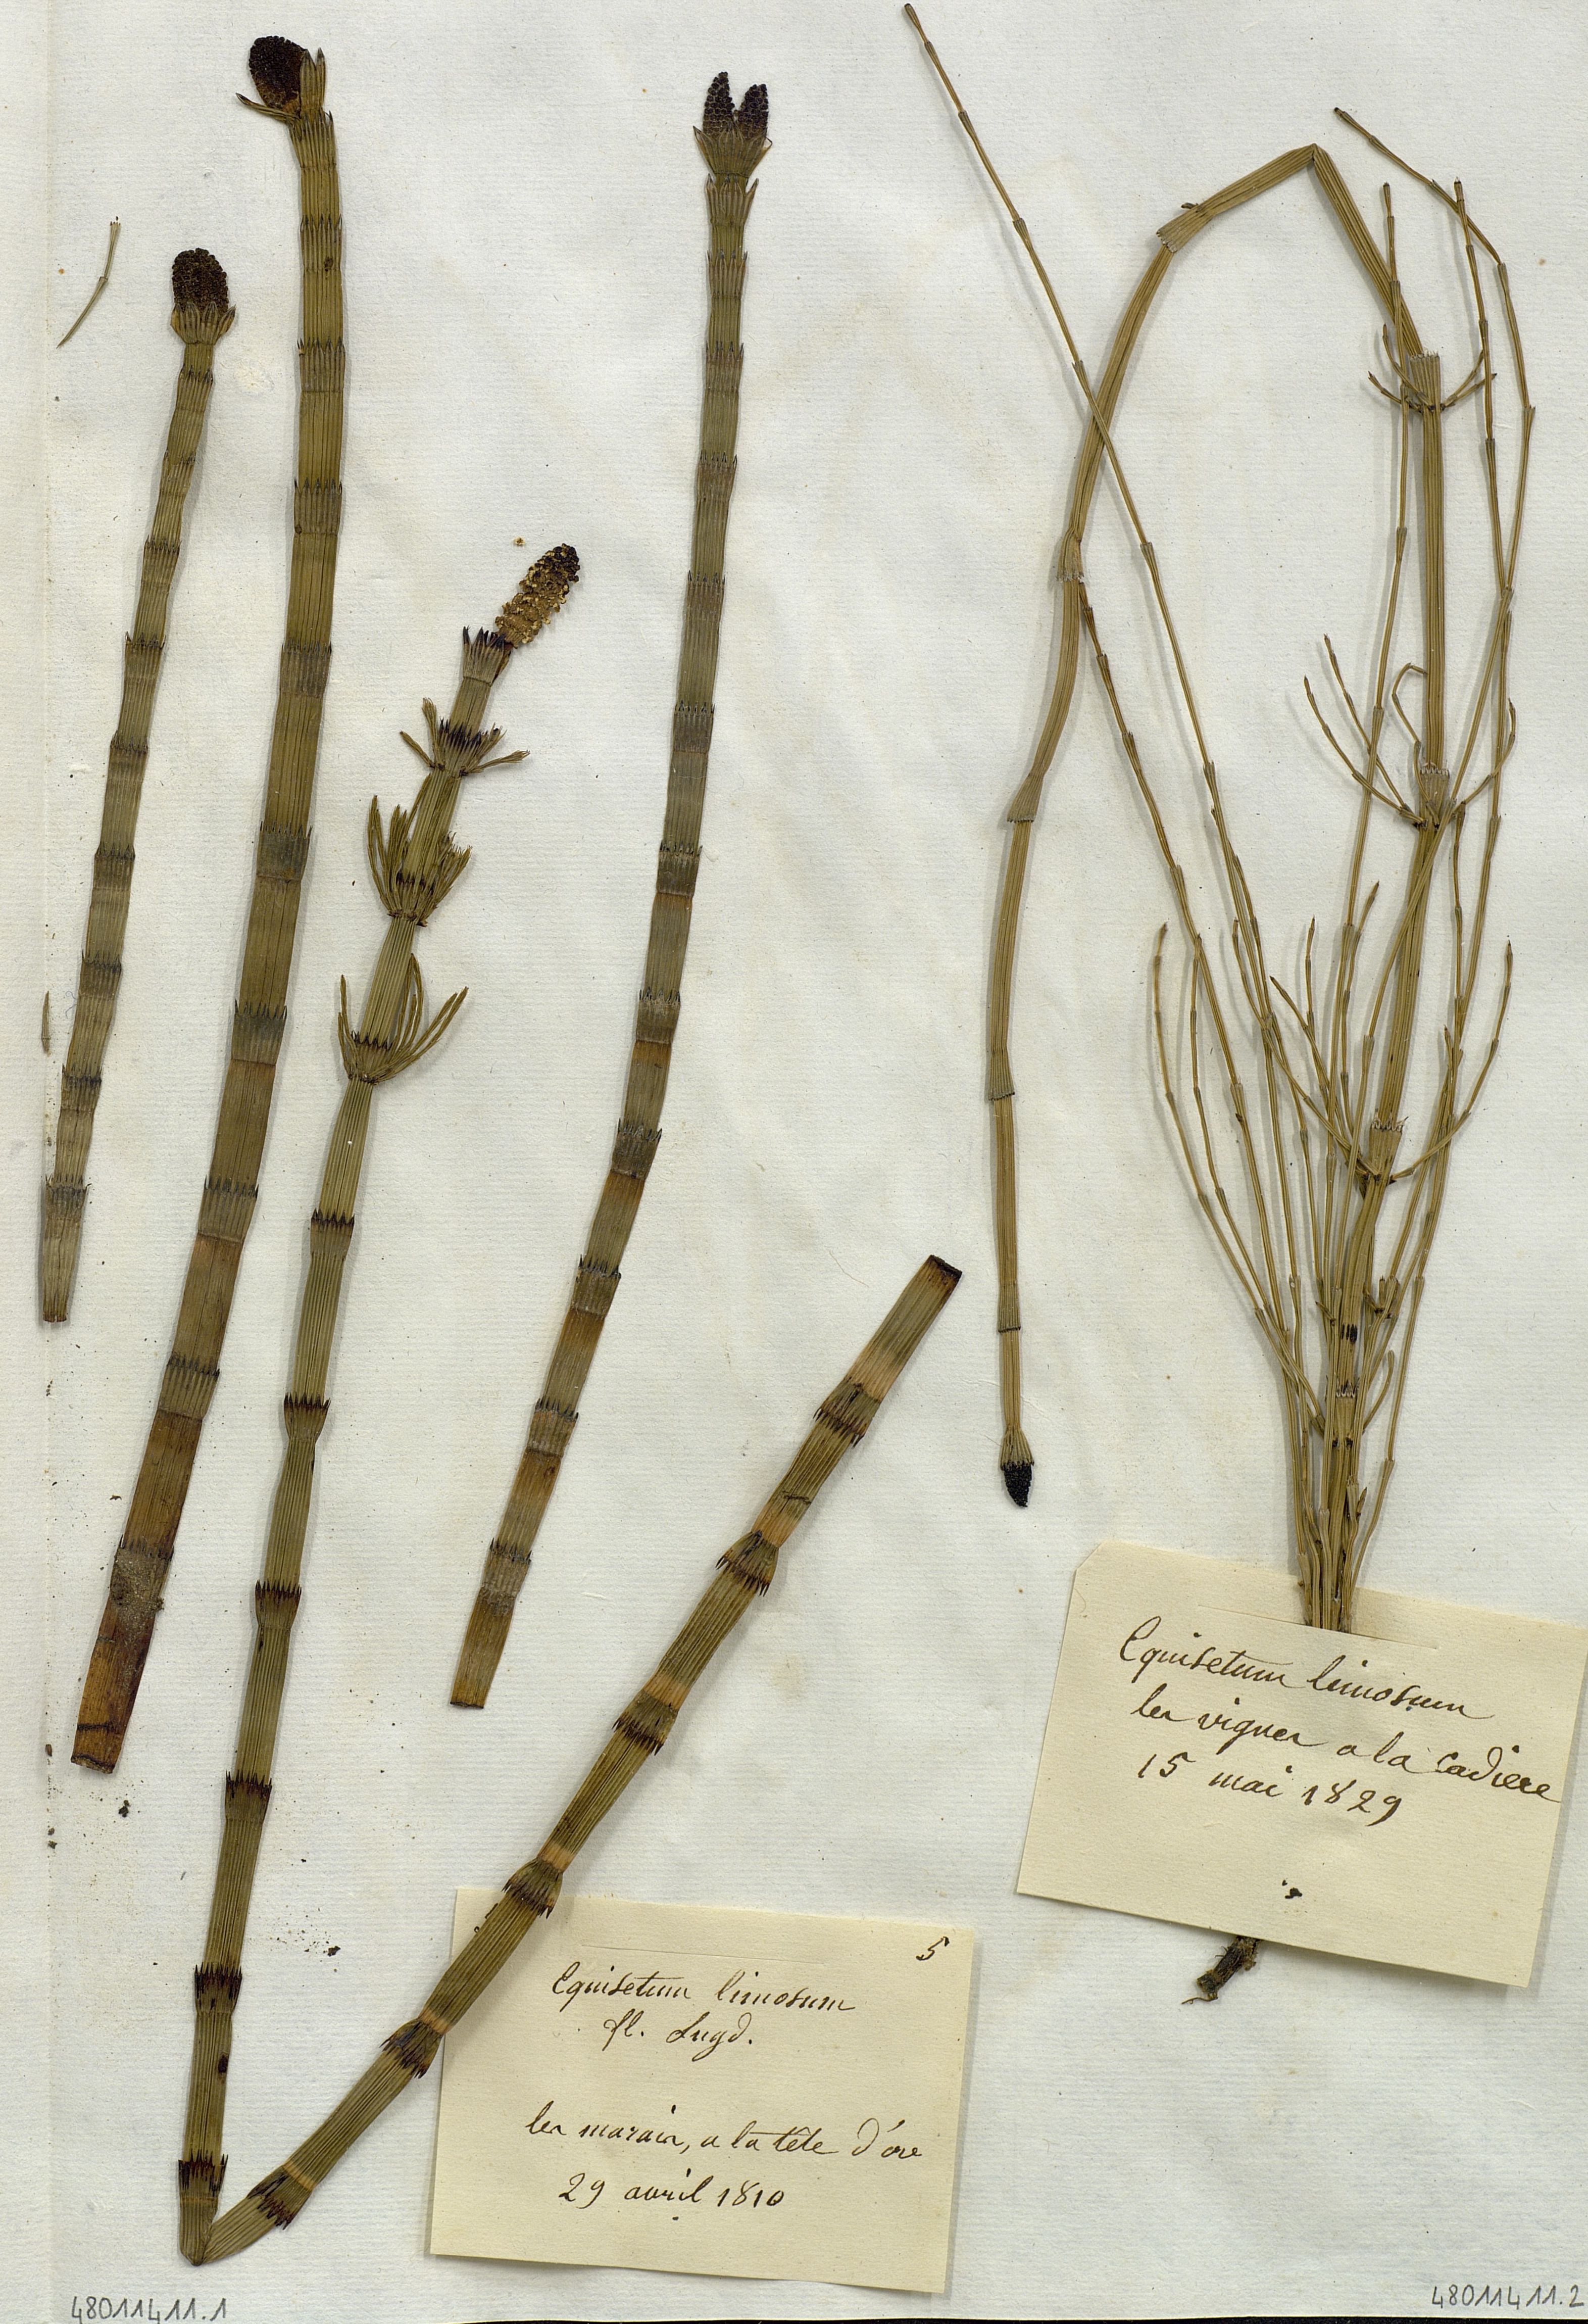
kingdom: Plantae
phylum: Tracheophyta
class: Polypodiopsida
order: Equisetales
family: Equisetaceae
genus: Equisetum
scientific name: Equisetum fluviatile
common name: Water horsetail
